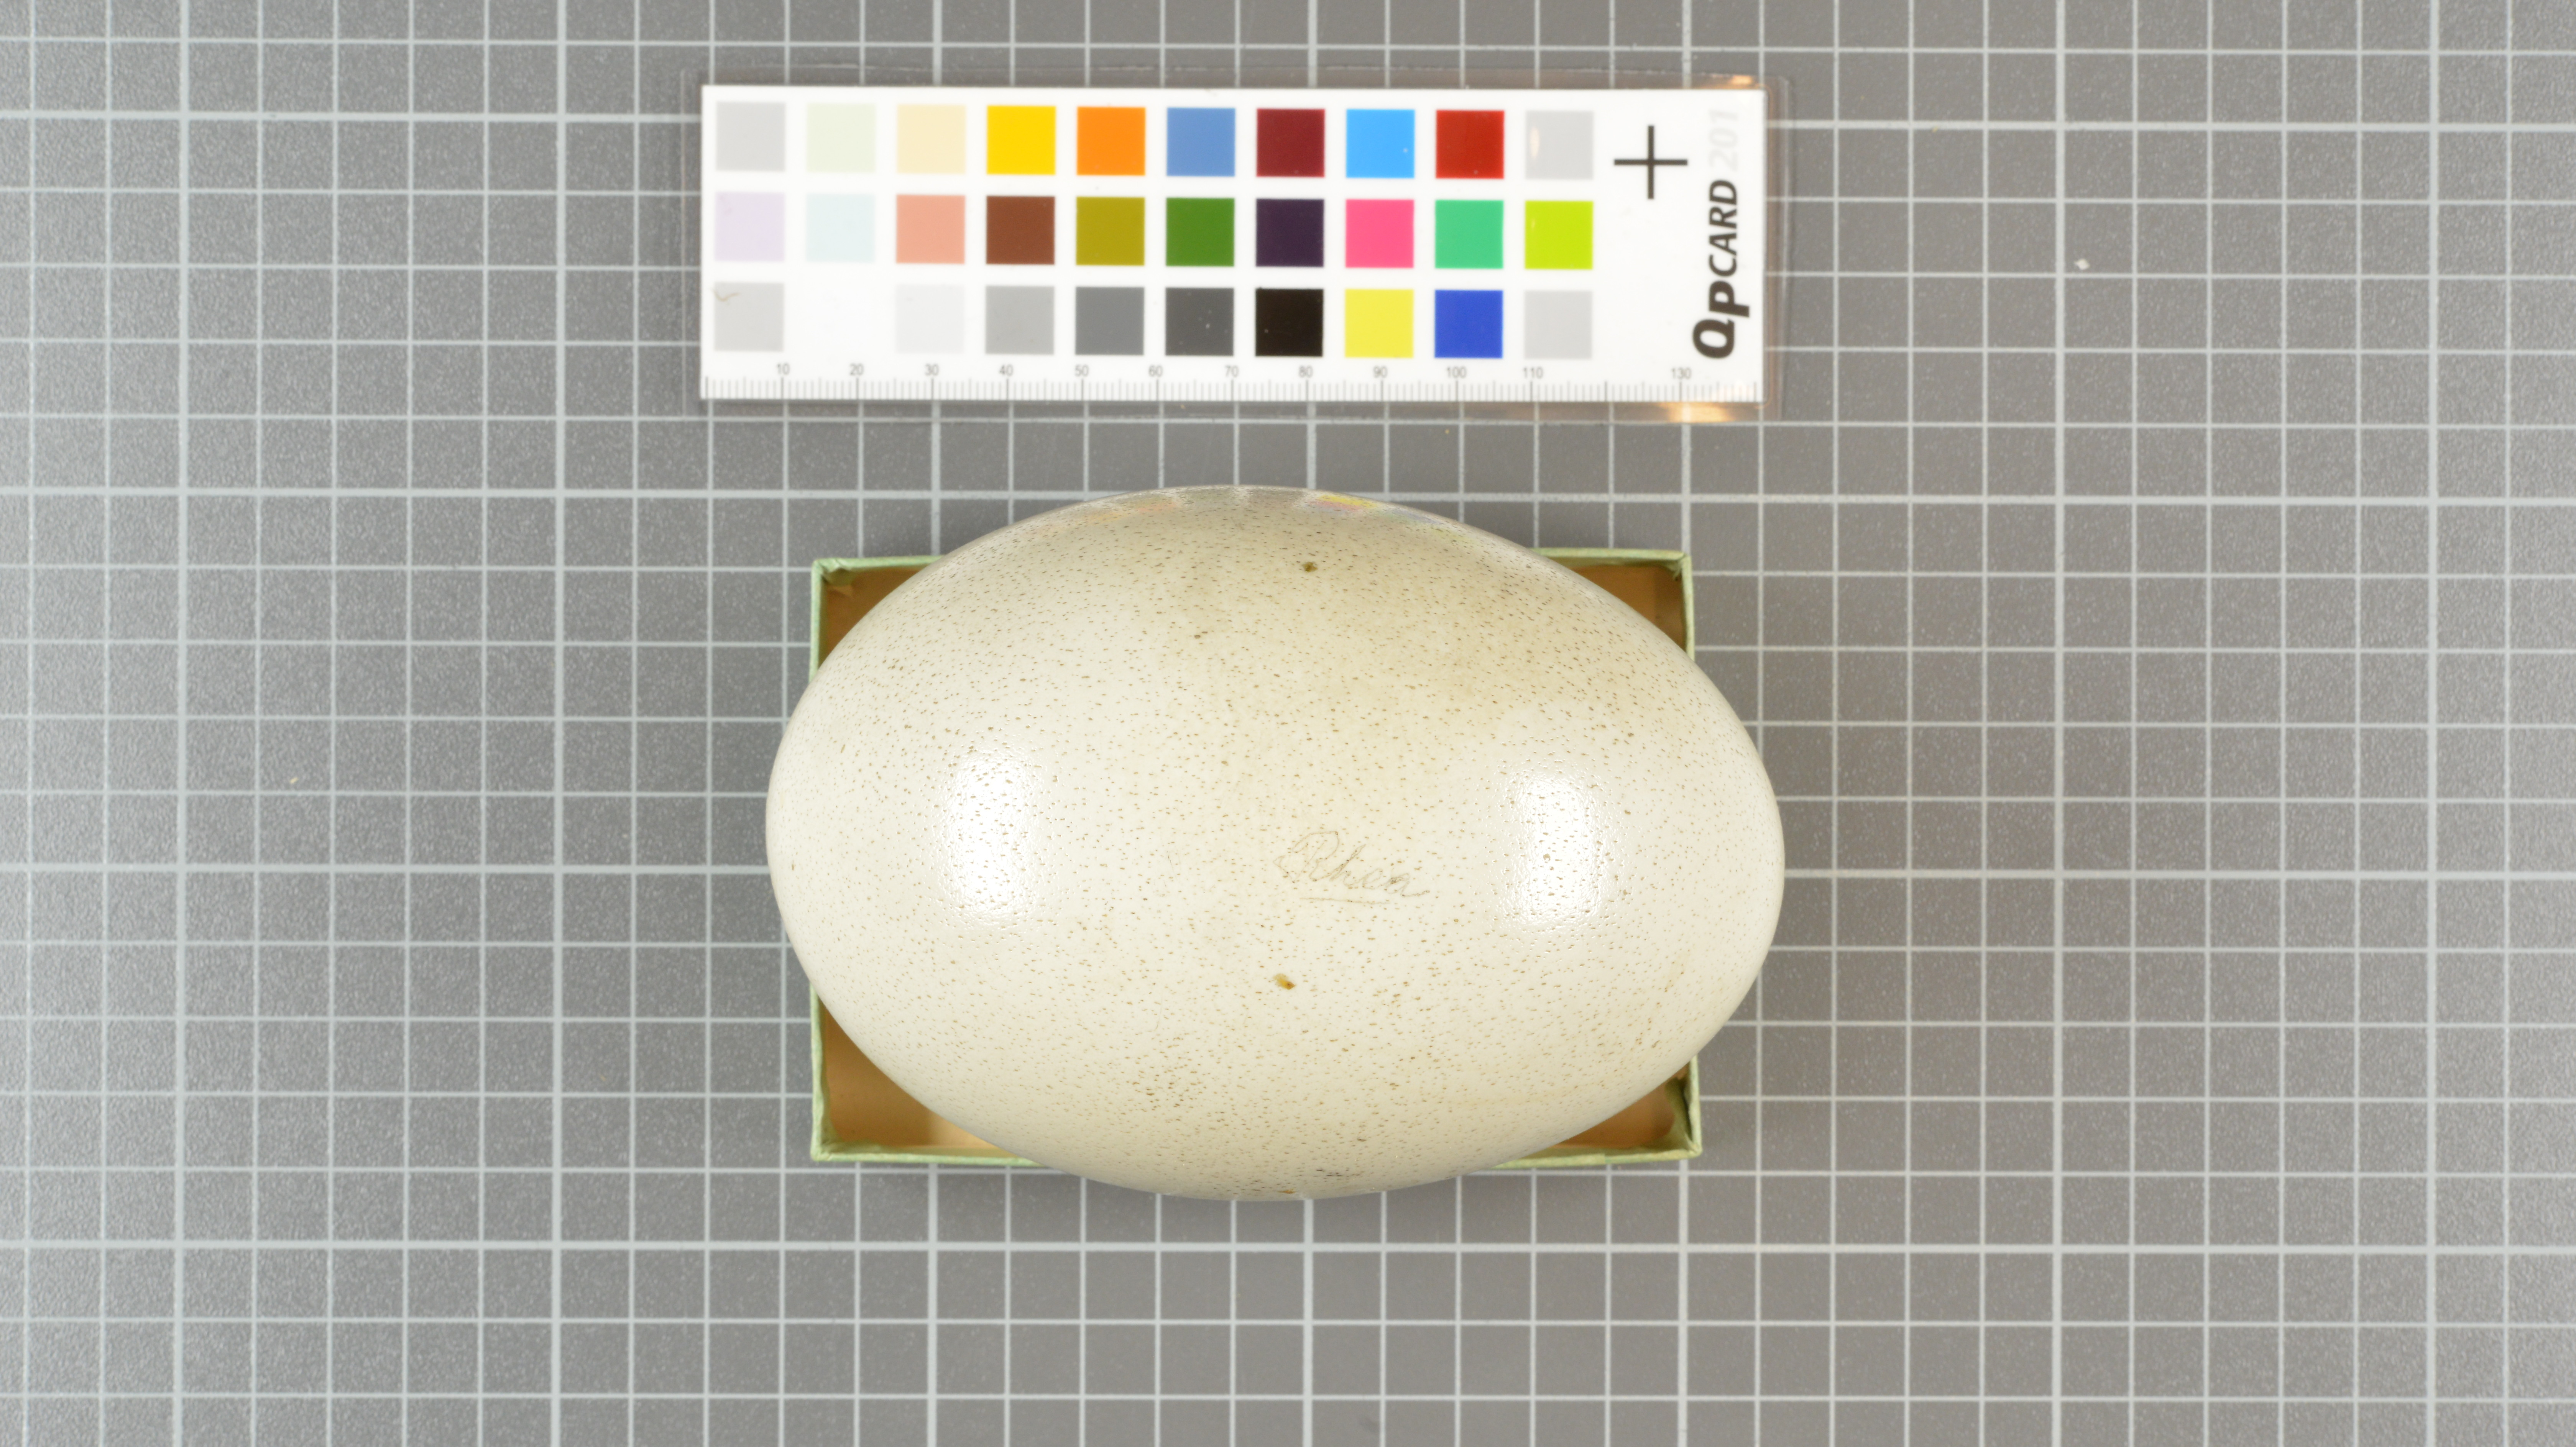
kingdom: Animalia
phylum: Chordata
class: Aves
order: Rheiformes
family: Rheidae
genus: Rhea
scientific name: Rhea americana
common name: Greater rhea
